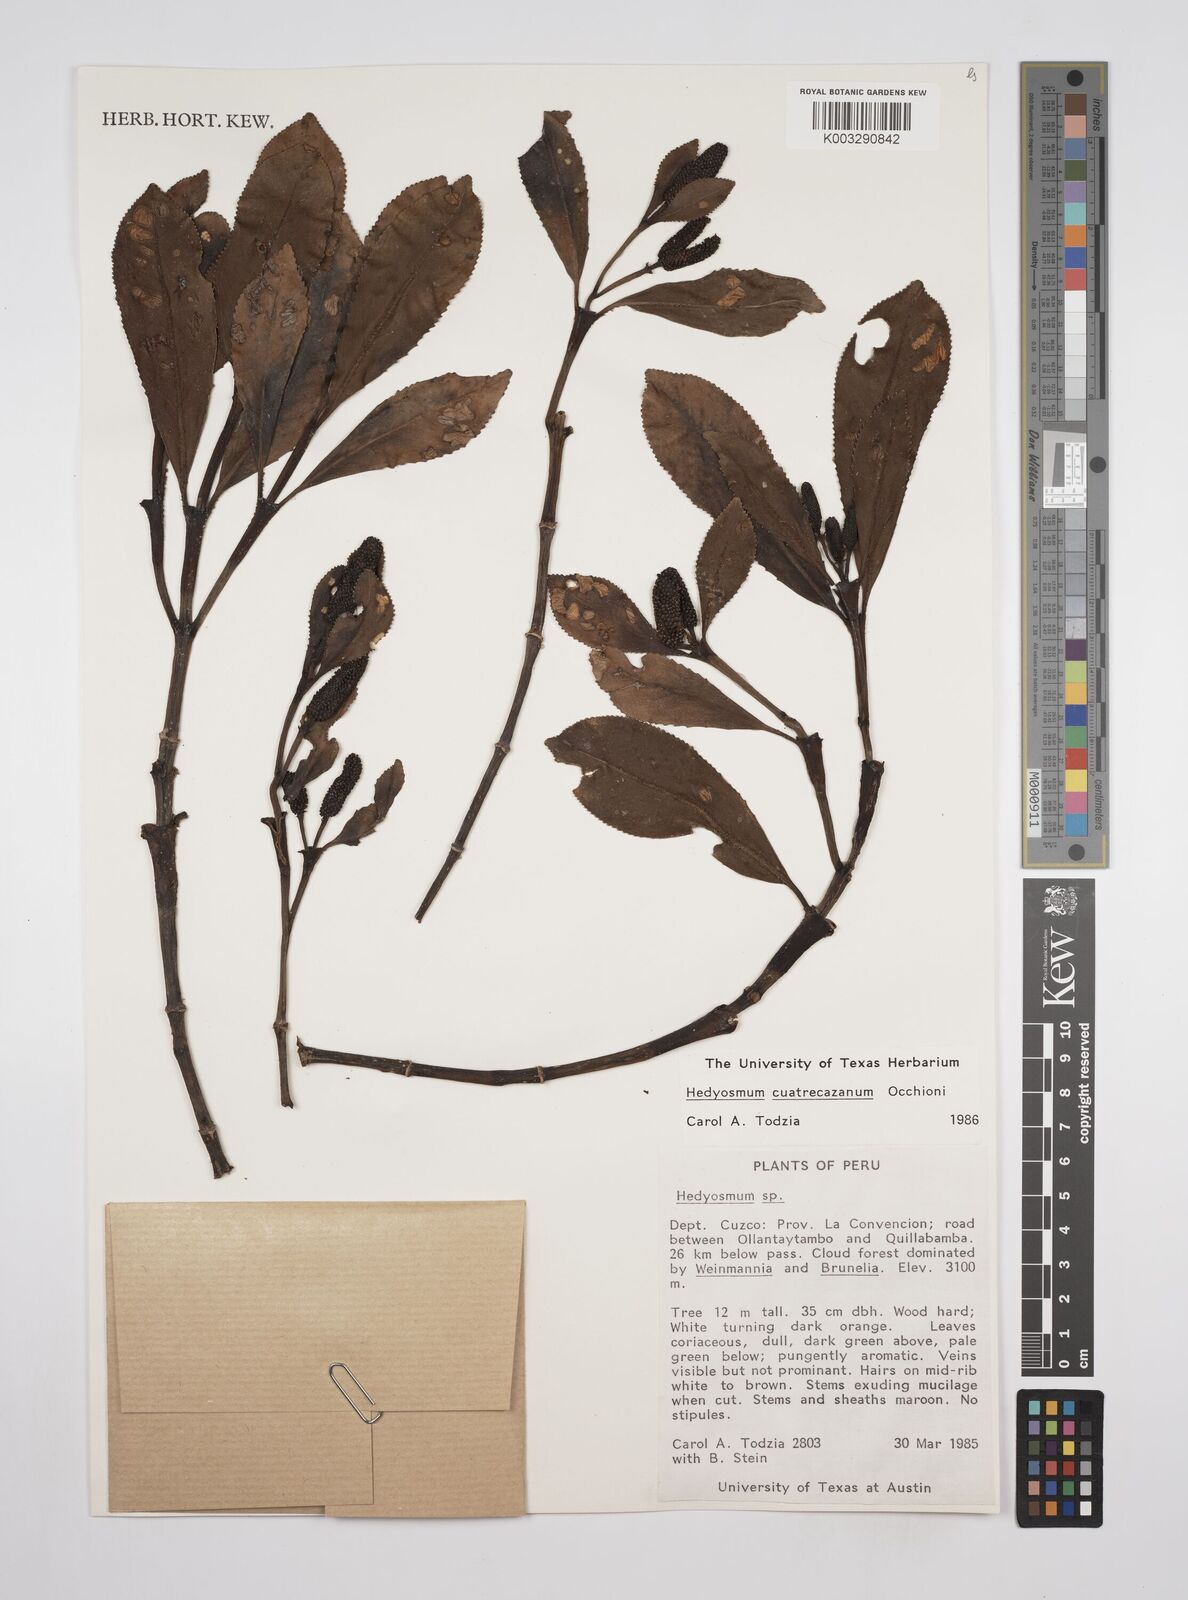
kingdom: Plantae
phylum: Tracheophyta
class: Magnoliopsida
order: Chloranthales
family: Chloranthaceae
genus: Hedyosmum
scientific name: Hedyosmum cuatrecazanum
